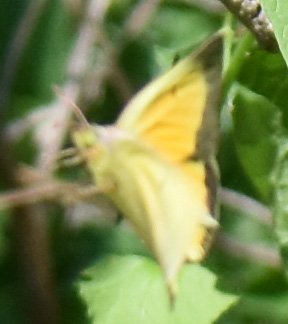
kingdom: Animalia
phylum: Arthropoda
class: Insecta
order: Lepidoptera
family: Pieridae
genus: Colias
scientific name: Colias eurytheme
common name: Orange Sulphur
